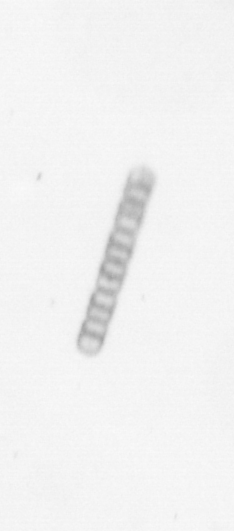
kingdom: Chromista
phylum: Ochrophyta
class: Bacillariophyceae
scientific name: Bacillariophyceae
